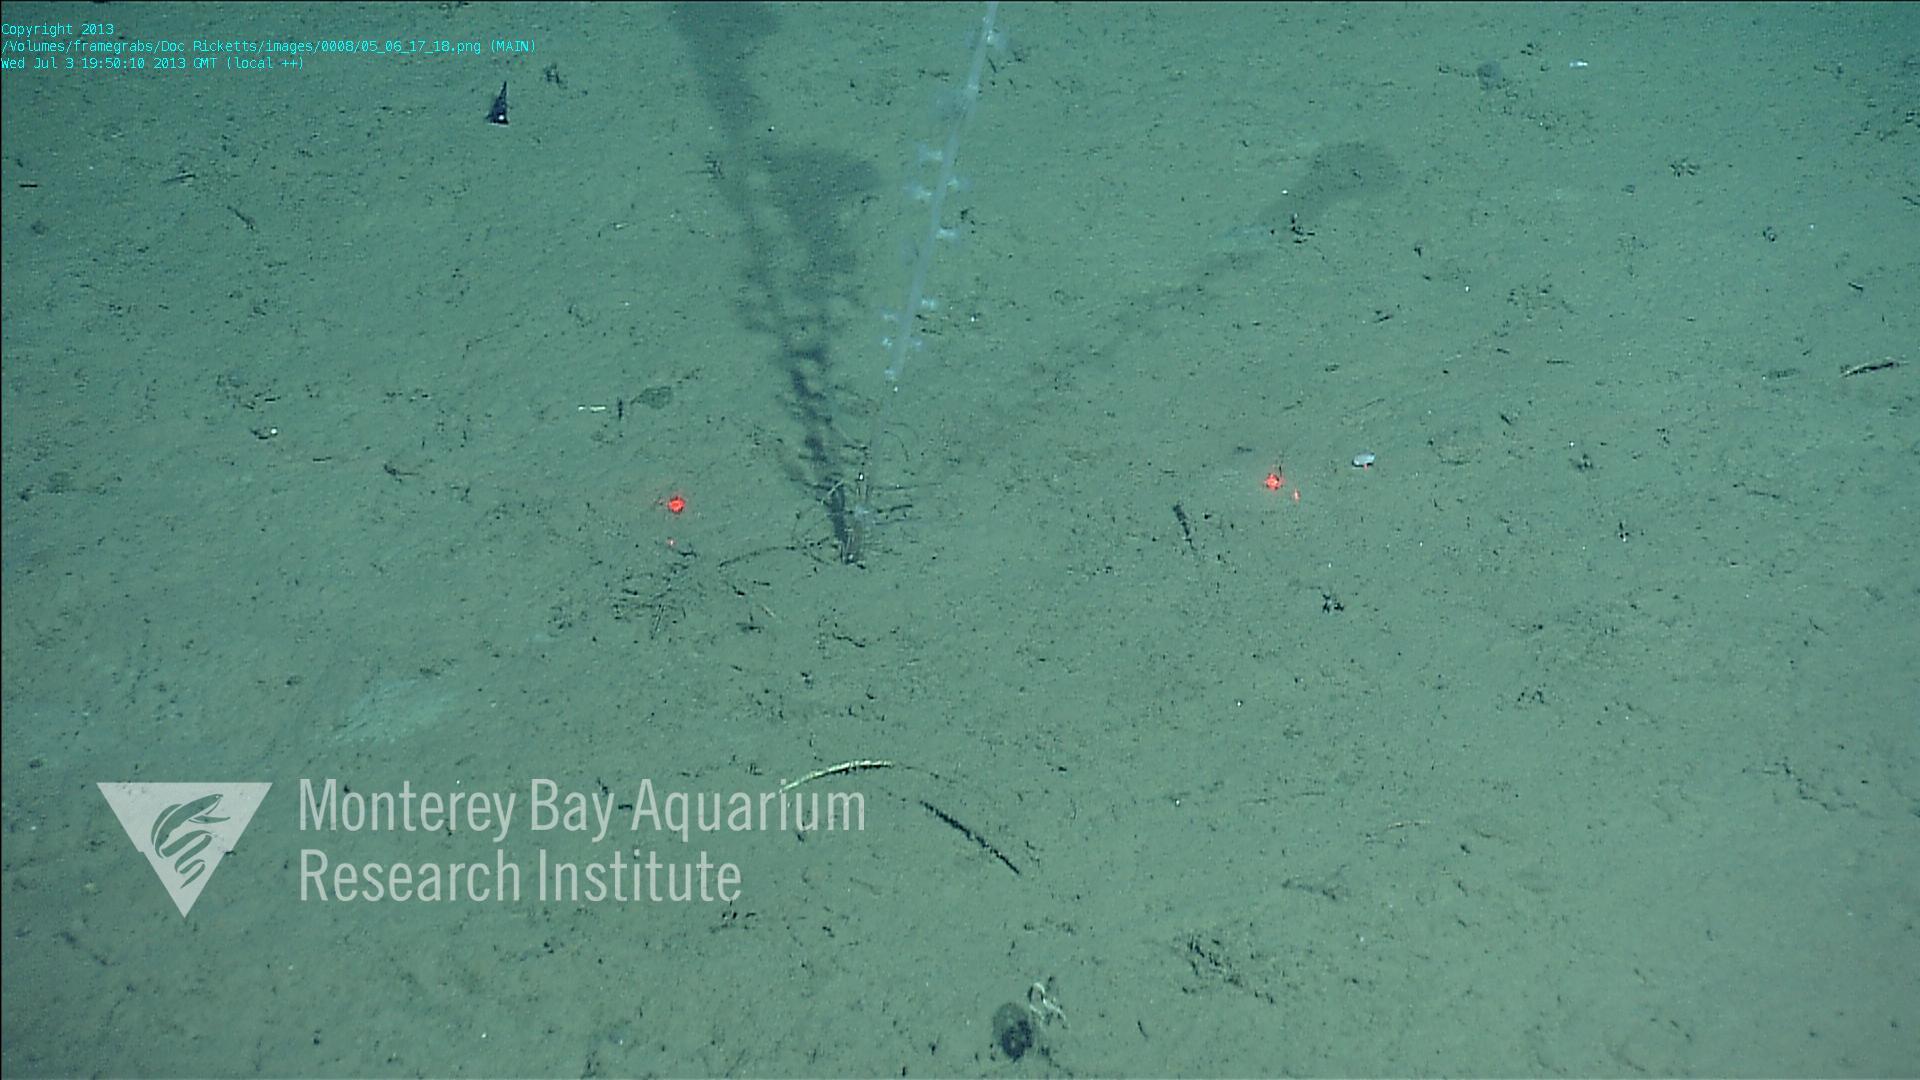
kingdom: Animalia
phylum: Porifera
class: Hexactinellida
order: Lyssacinosida
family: Rossellidae
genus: Bathydorus
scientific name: Bathydorus spinosus
